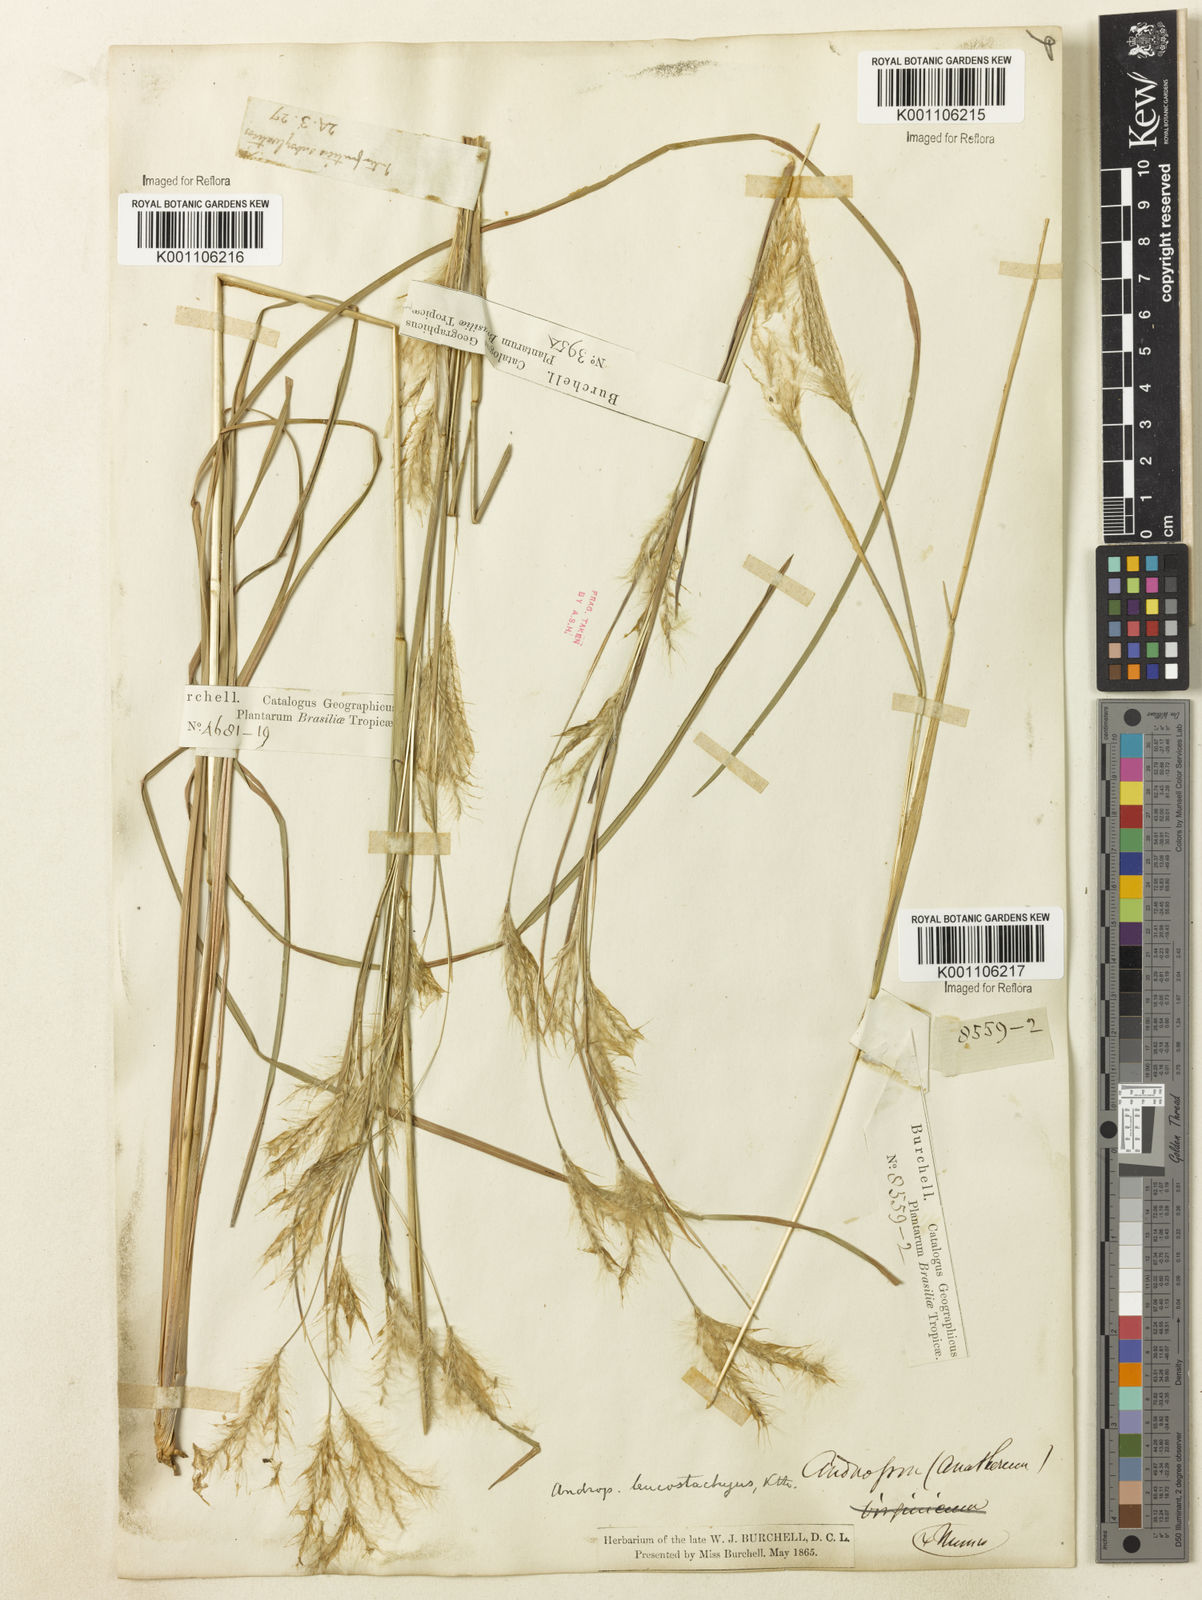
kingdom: Plantae
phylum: Tracheophyta
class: Liliopsida
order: Poales
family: Poaceae
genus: Andropogon
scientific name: Andropogon leucostachyus
